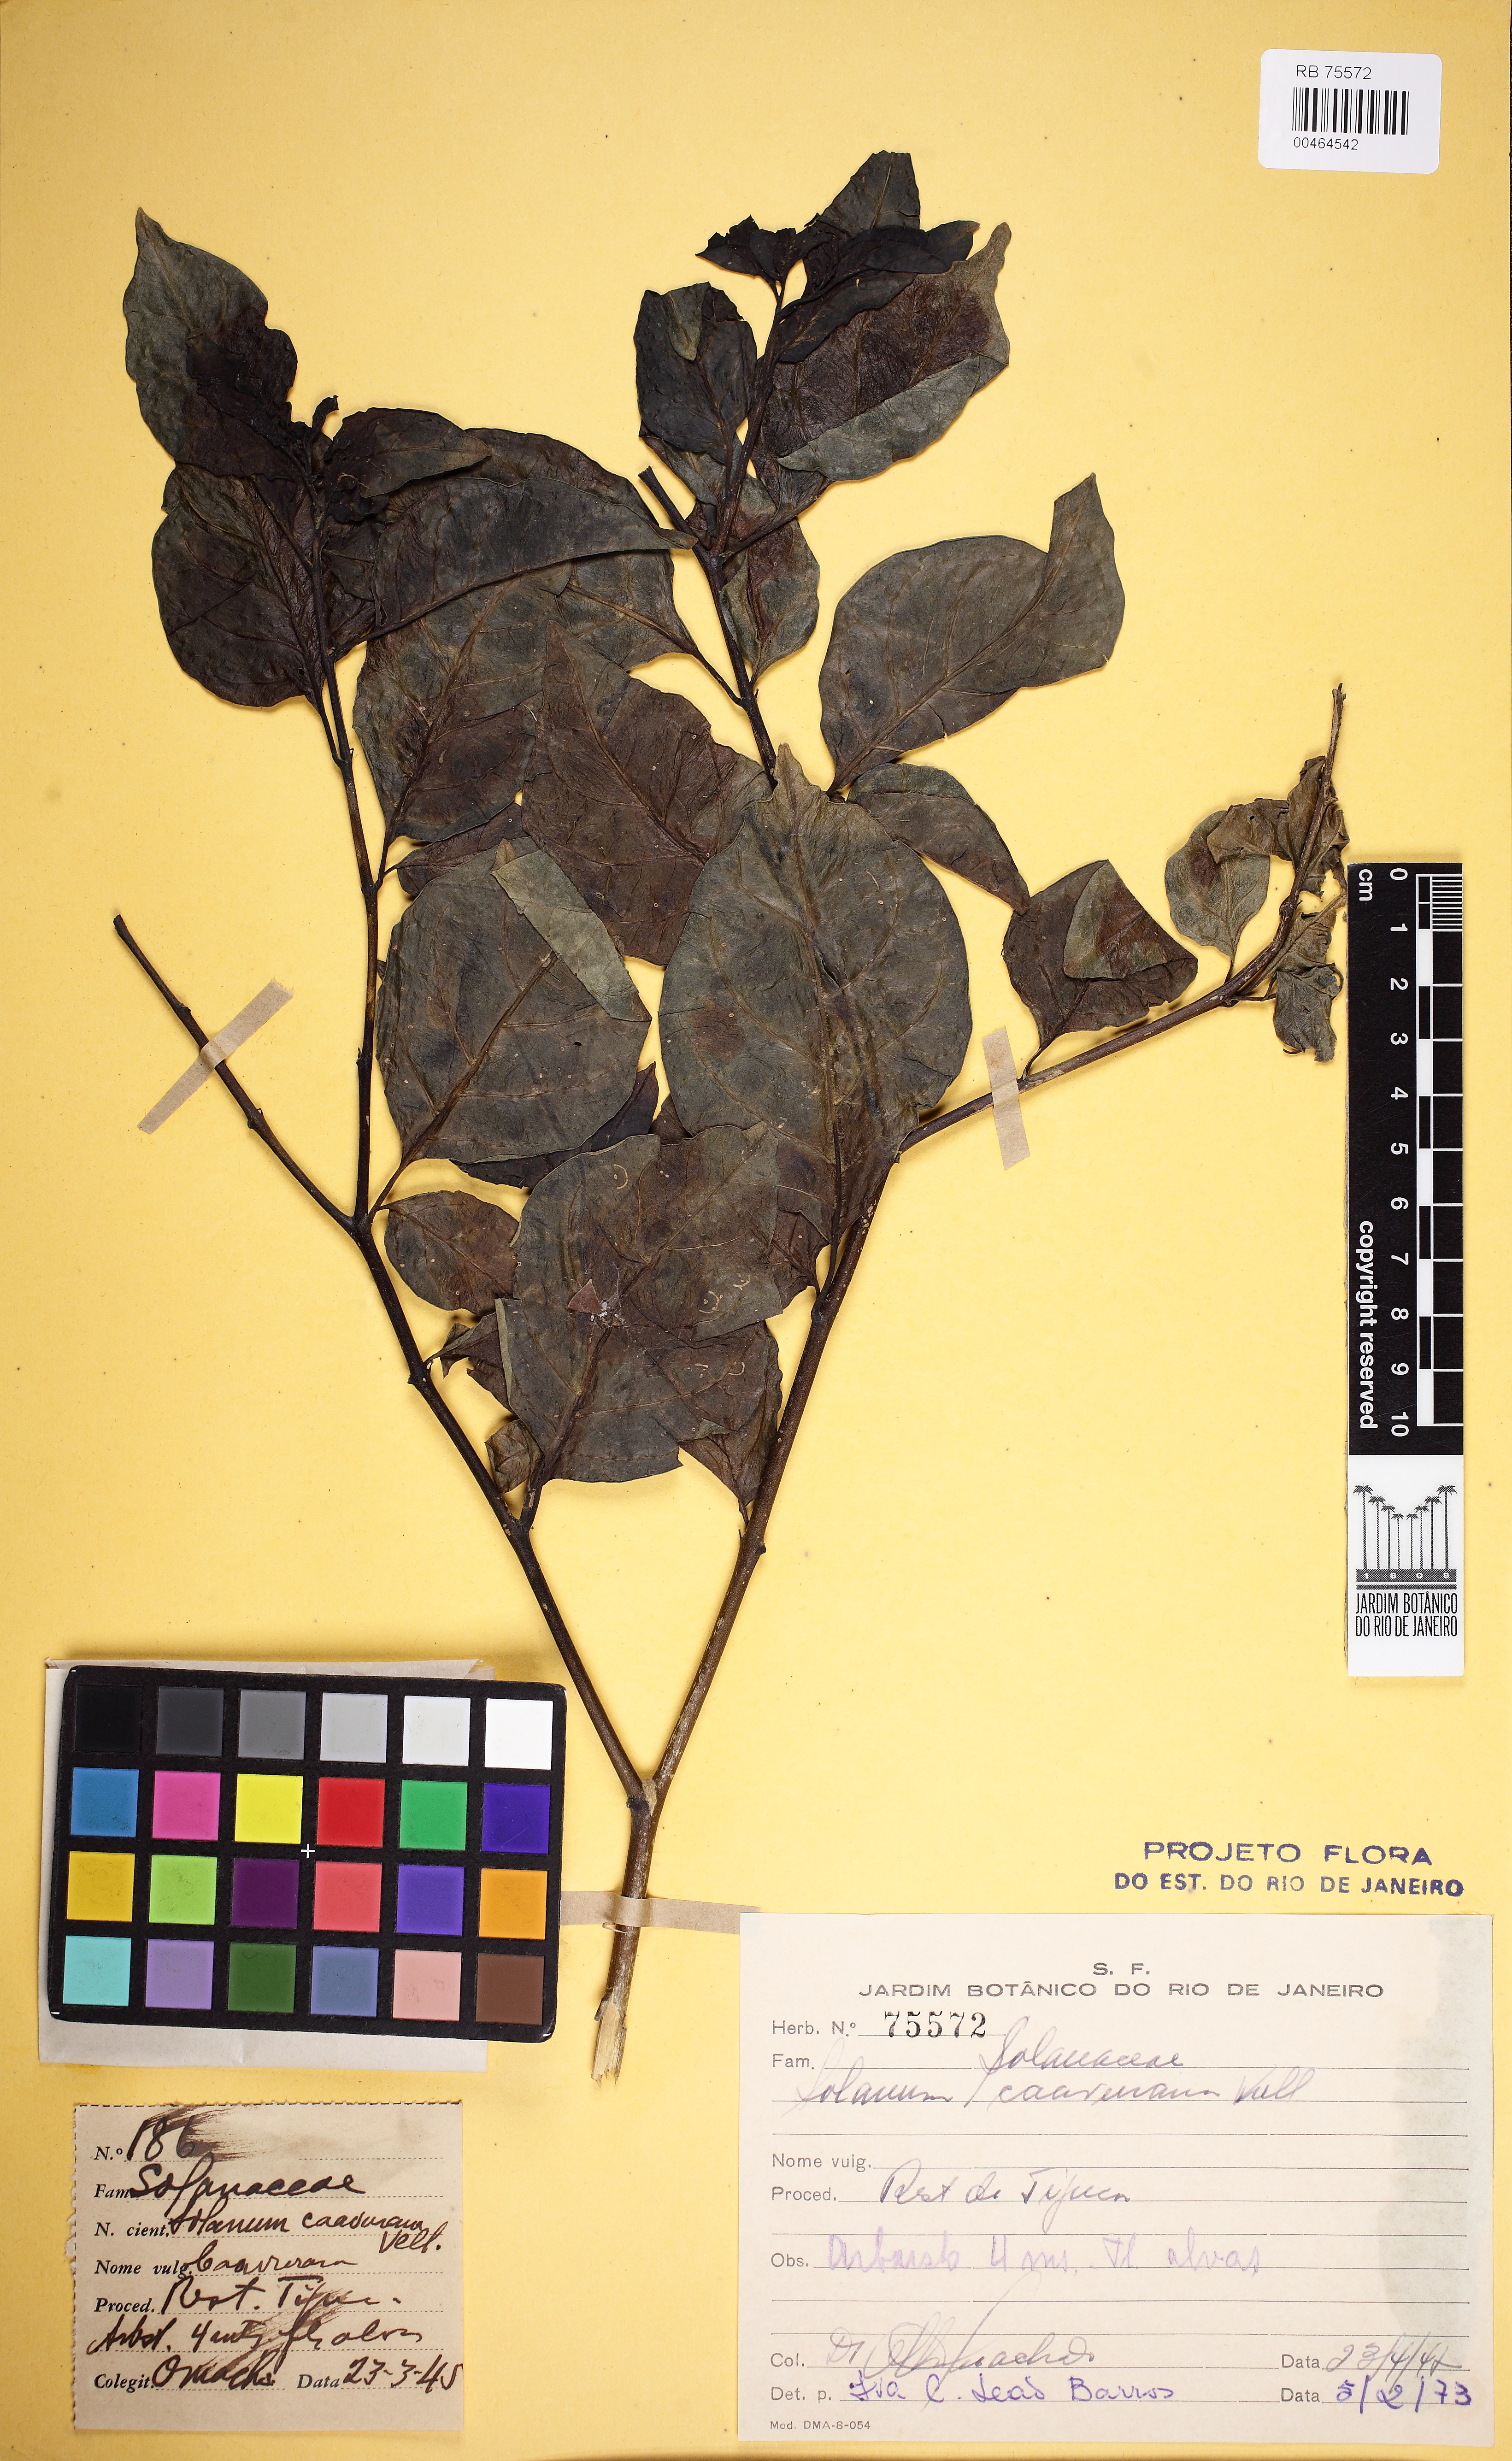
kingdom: Plantae
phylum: Tracheophyta
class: Magnoliopsida
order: Solanales
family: Solanaceae
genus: Solanum
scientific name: Solanum caavurana
